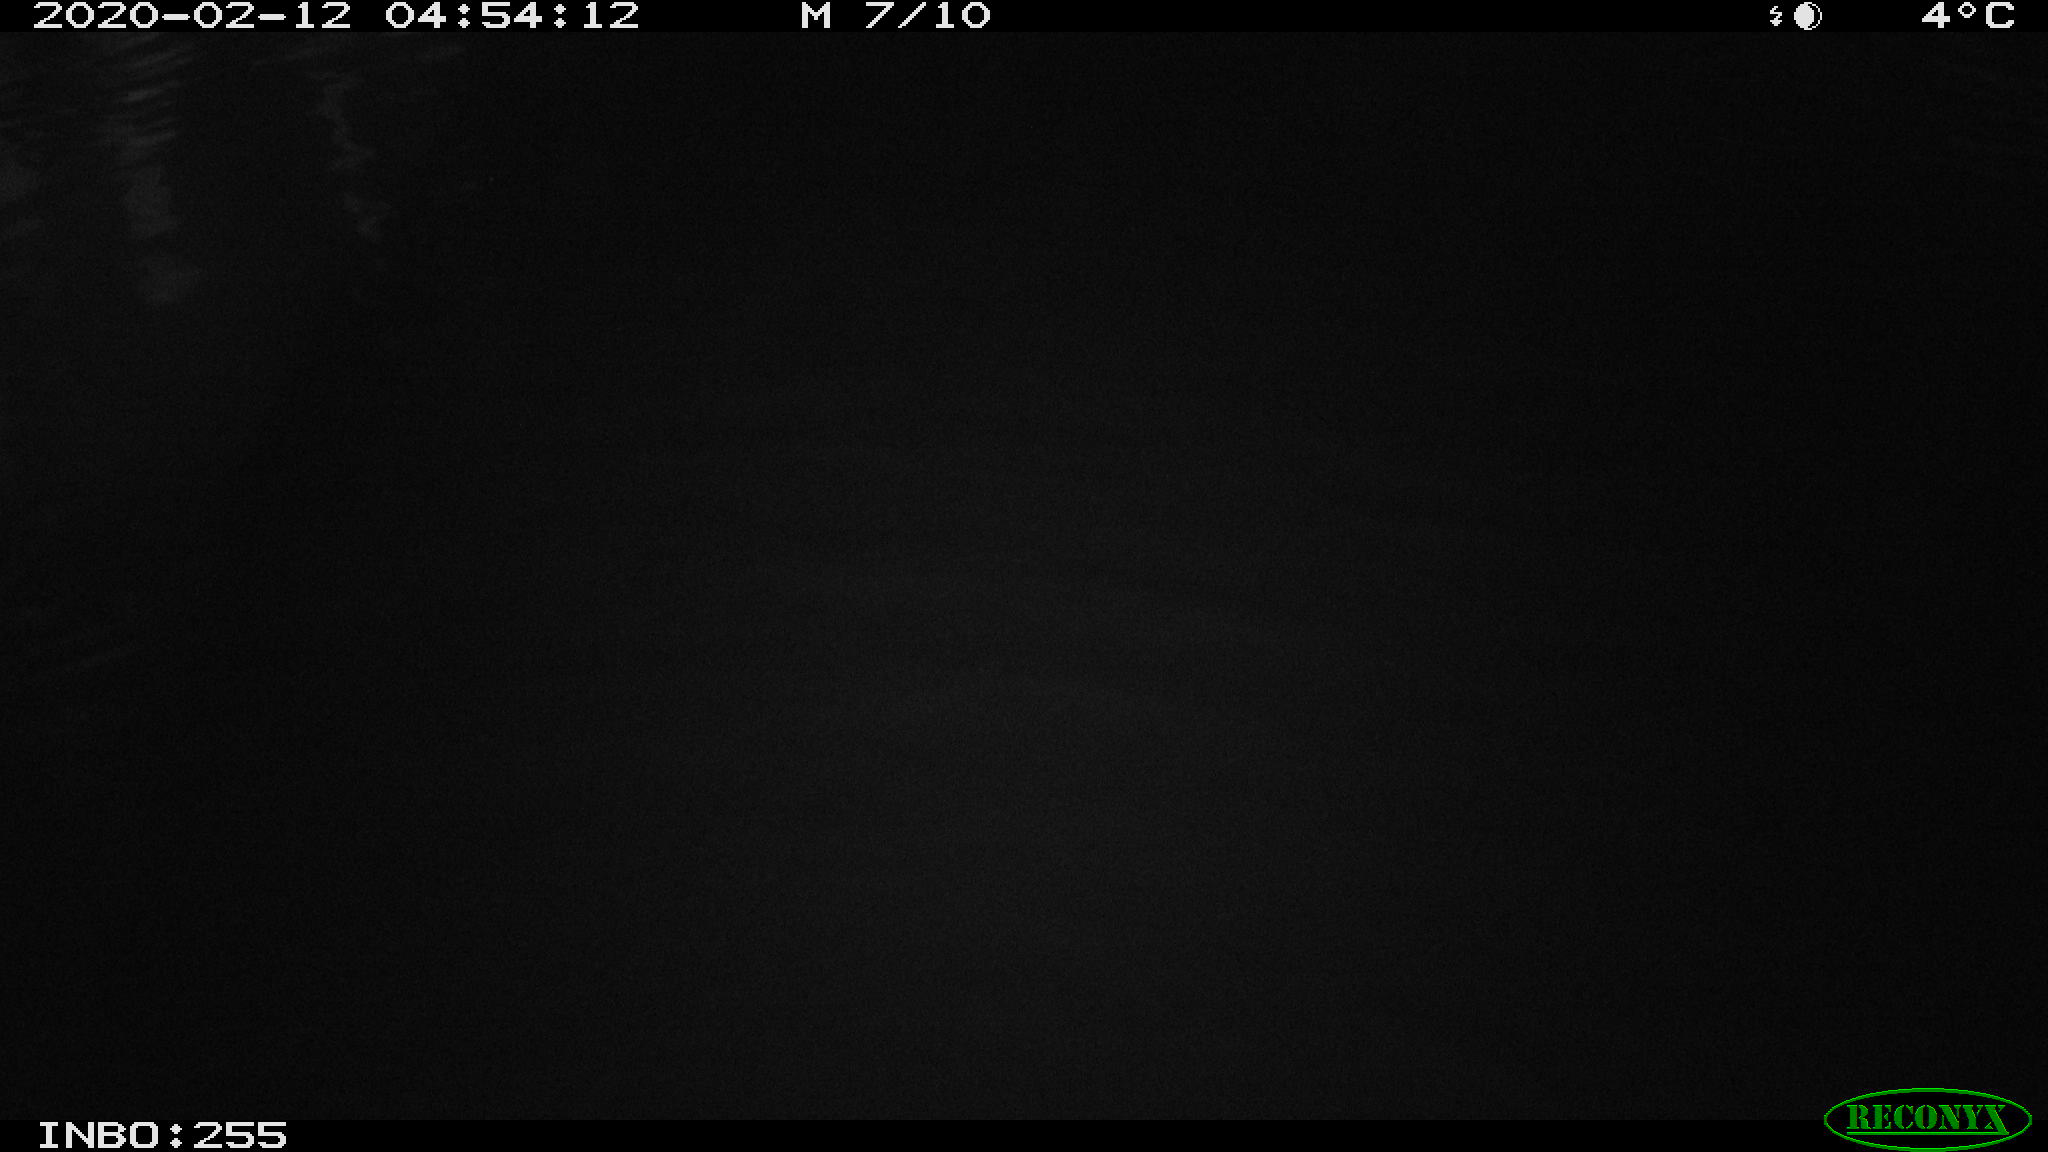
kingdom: Animalia
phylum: Chordata
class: Aves
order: Anseriformes
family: Anatidae
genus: Anas
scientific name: Anas platyrhynchos
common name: Mallard
